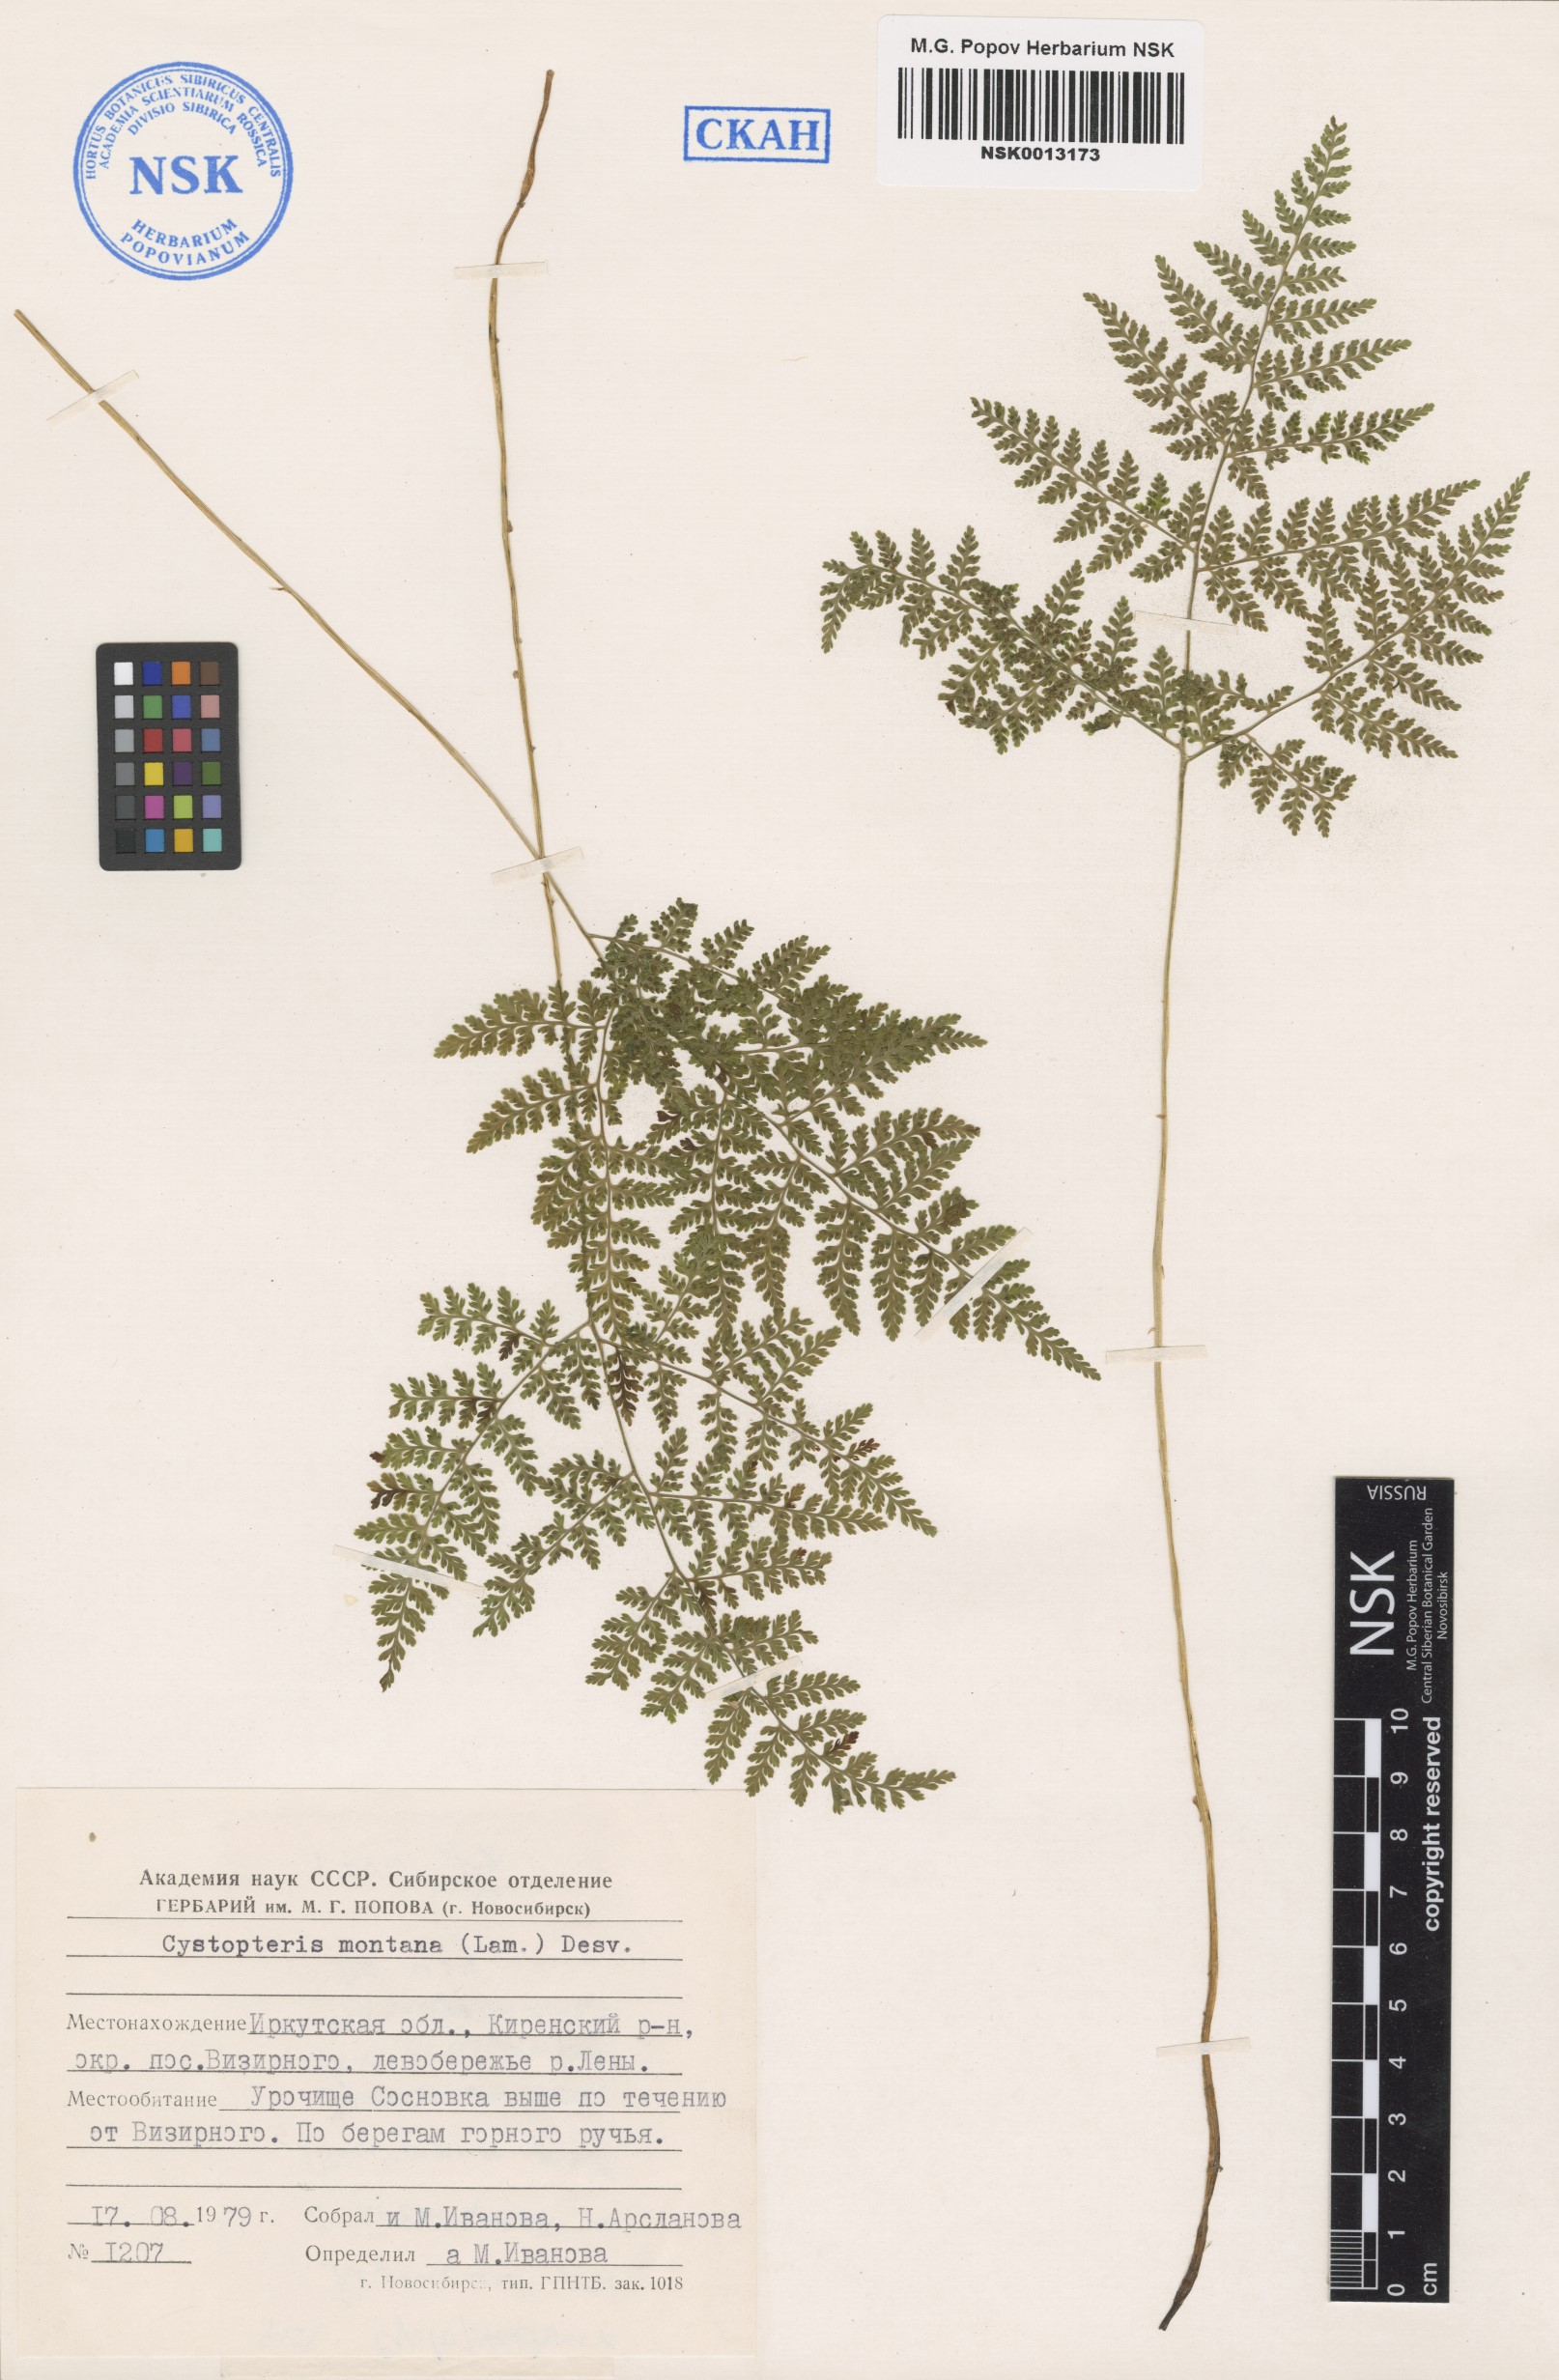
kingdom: Plantae
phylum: Tracheophyta
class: Polypodiopsida
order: Polypodiales
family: Cystopteridaceae
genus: Cystopteris
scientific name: Cystopteris montana
